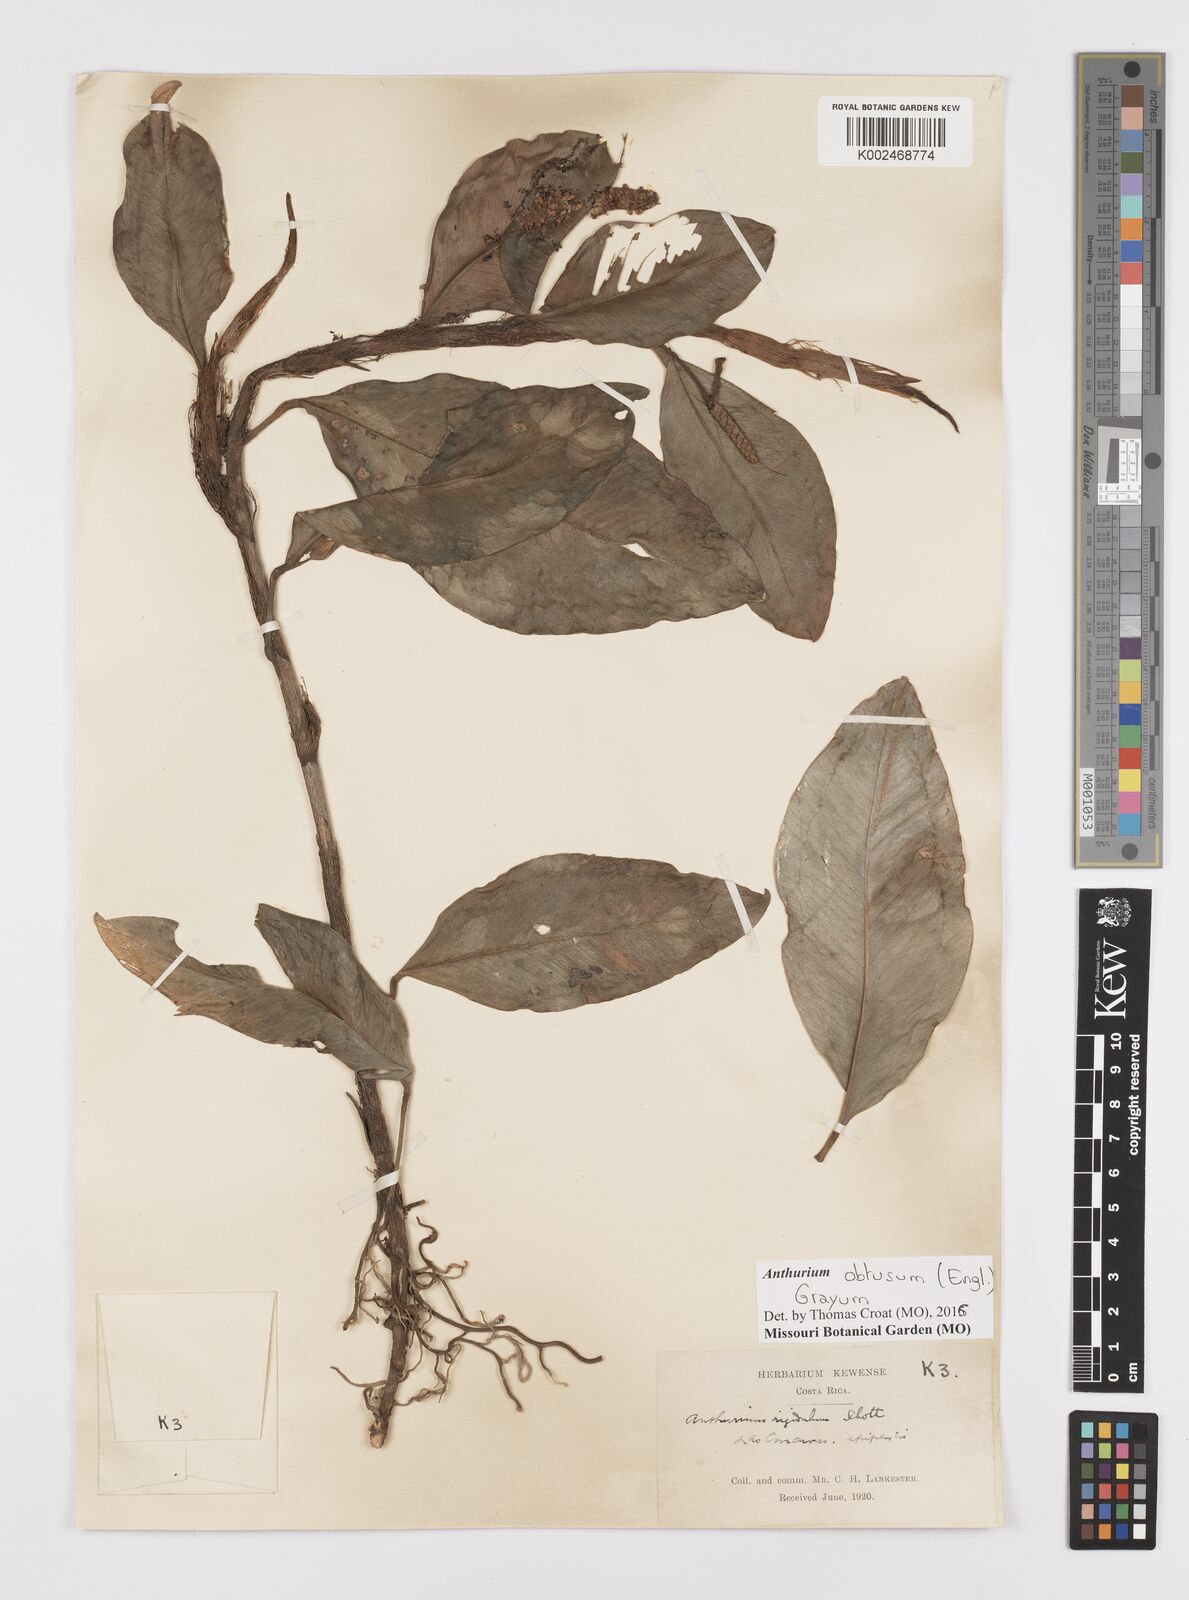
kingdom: Plantae
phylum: Tracheophyta
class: Liliopsida
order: Alismatales
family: Araceae
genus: Anthurium
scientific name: Anthurium obtusum
